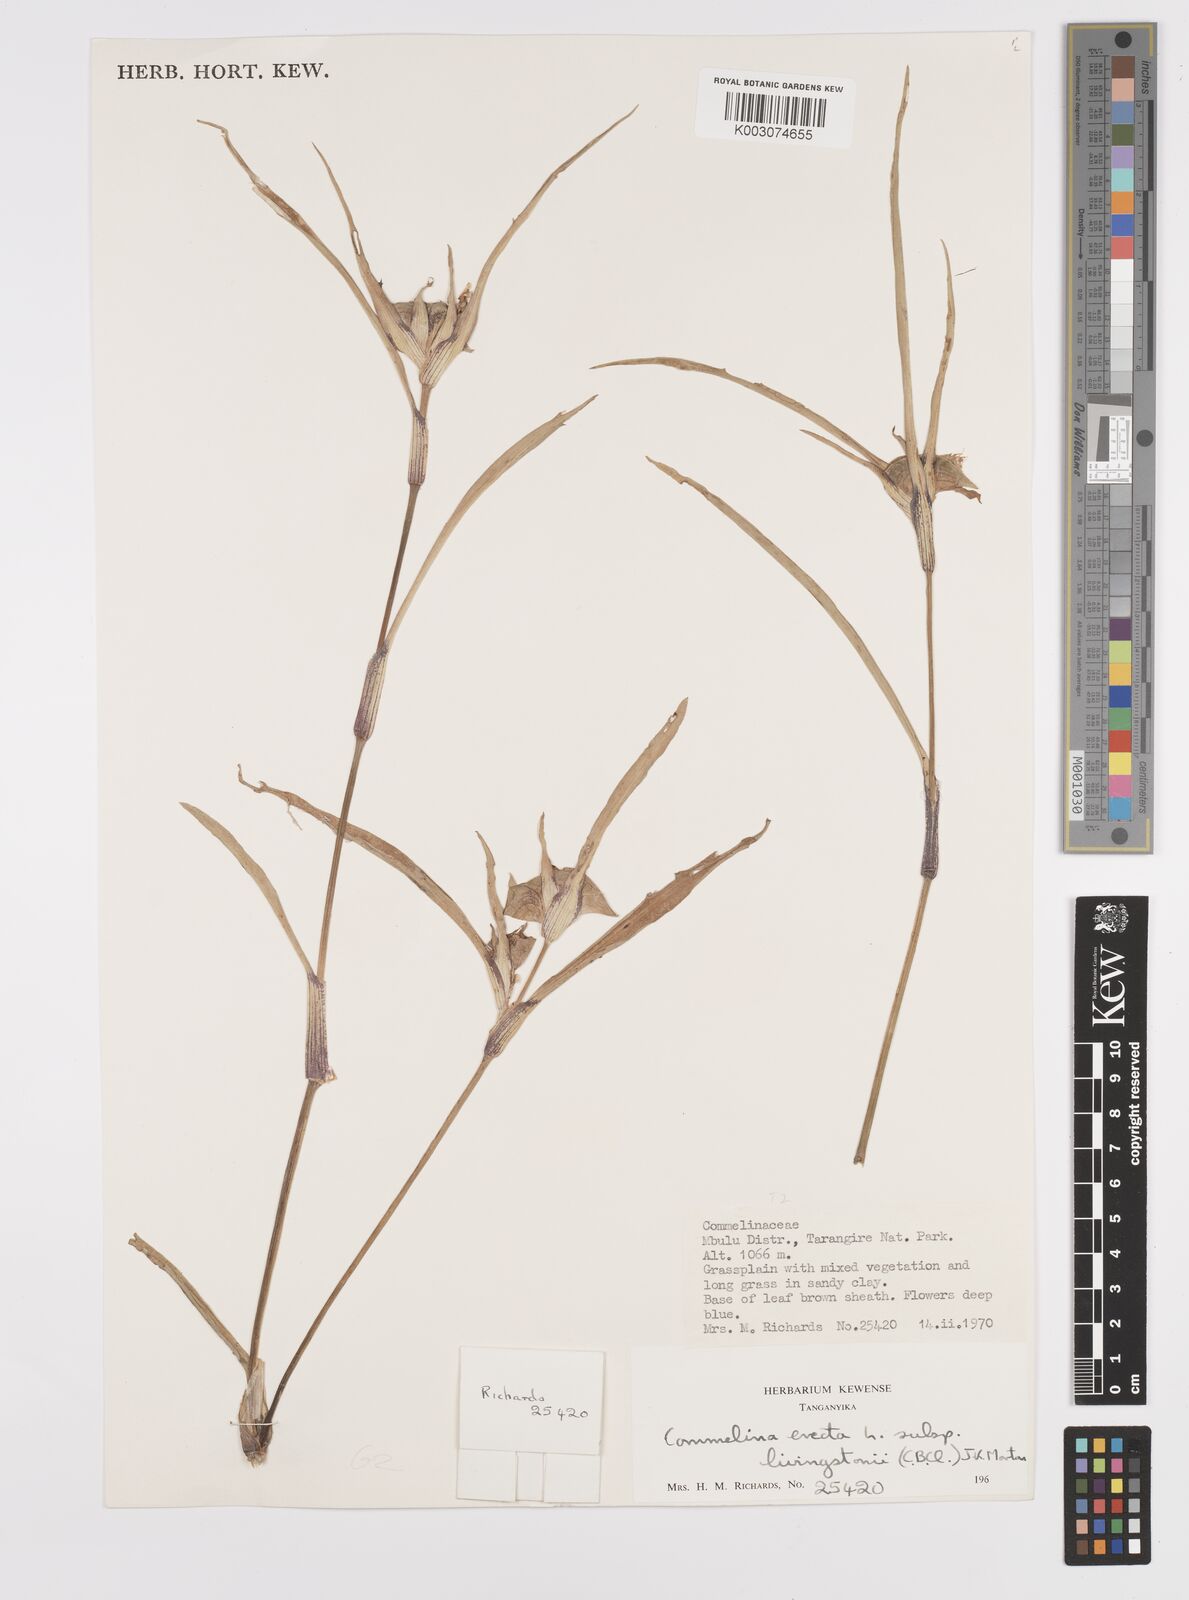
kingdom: Plantae
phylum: Tracheophyta
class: Liliopsida
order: Commelinales
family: Commelinaceae
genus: Commelina
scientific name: Commelina erecta
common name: Blousel blommetjie
